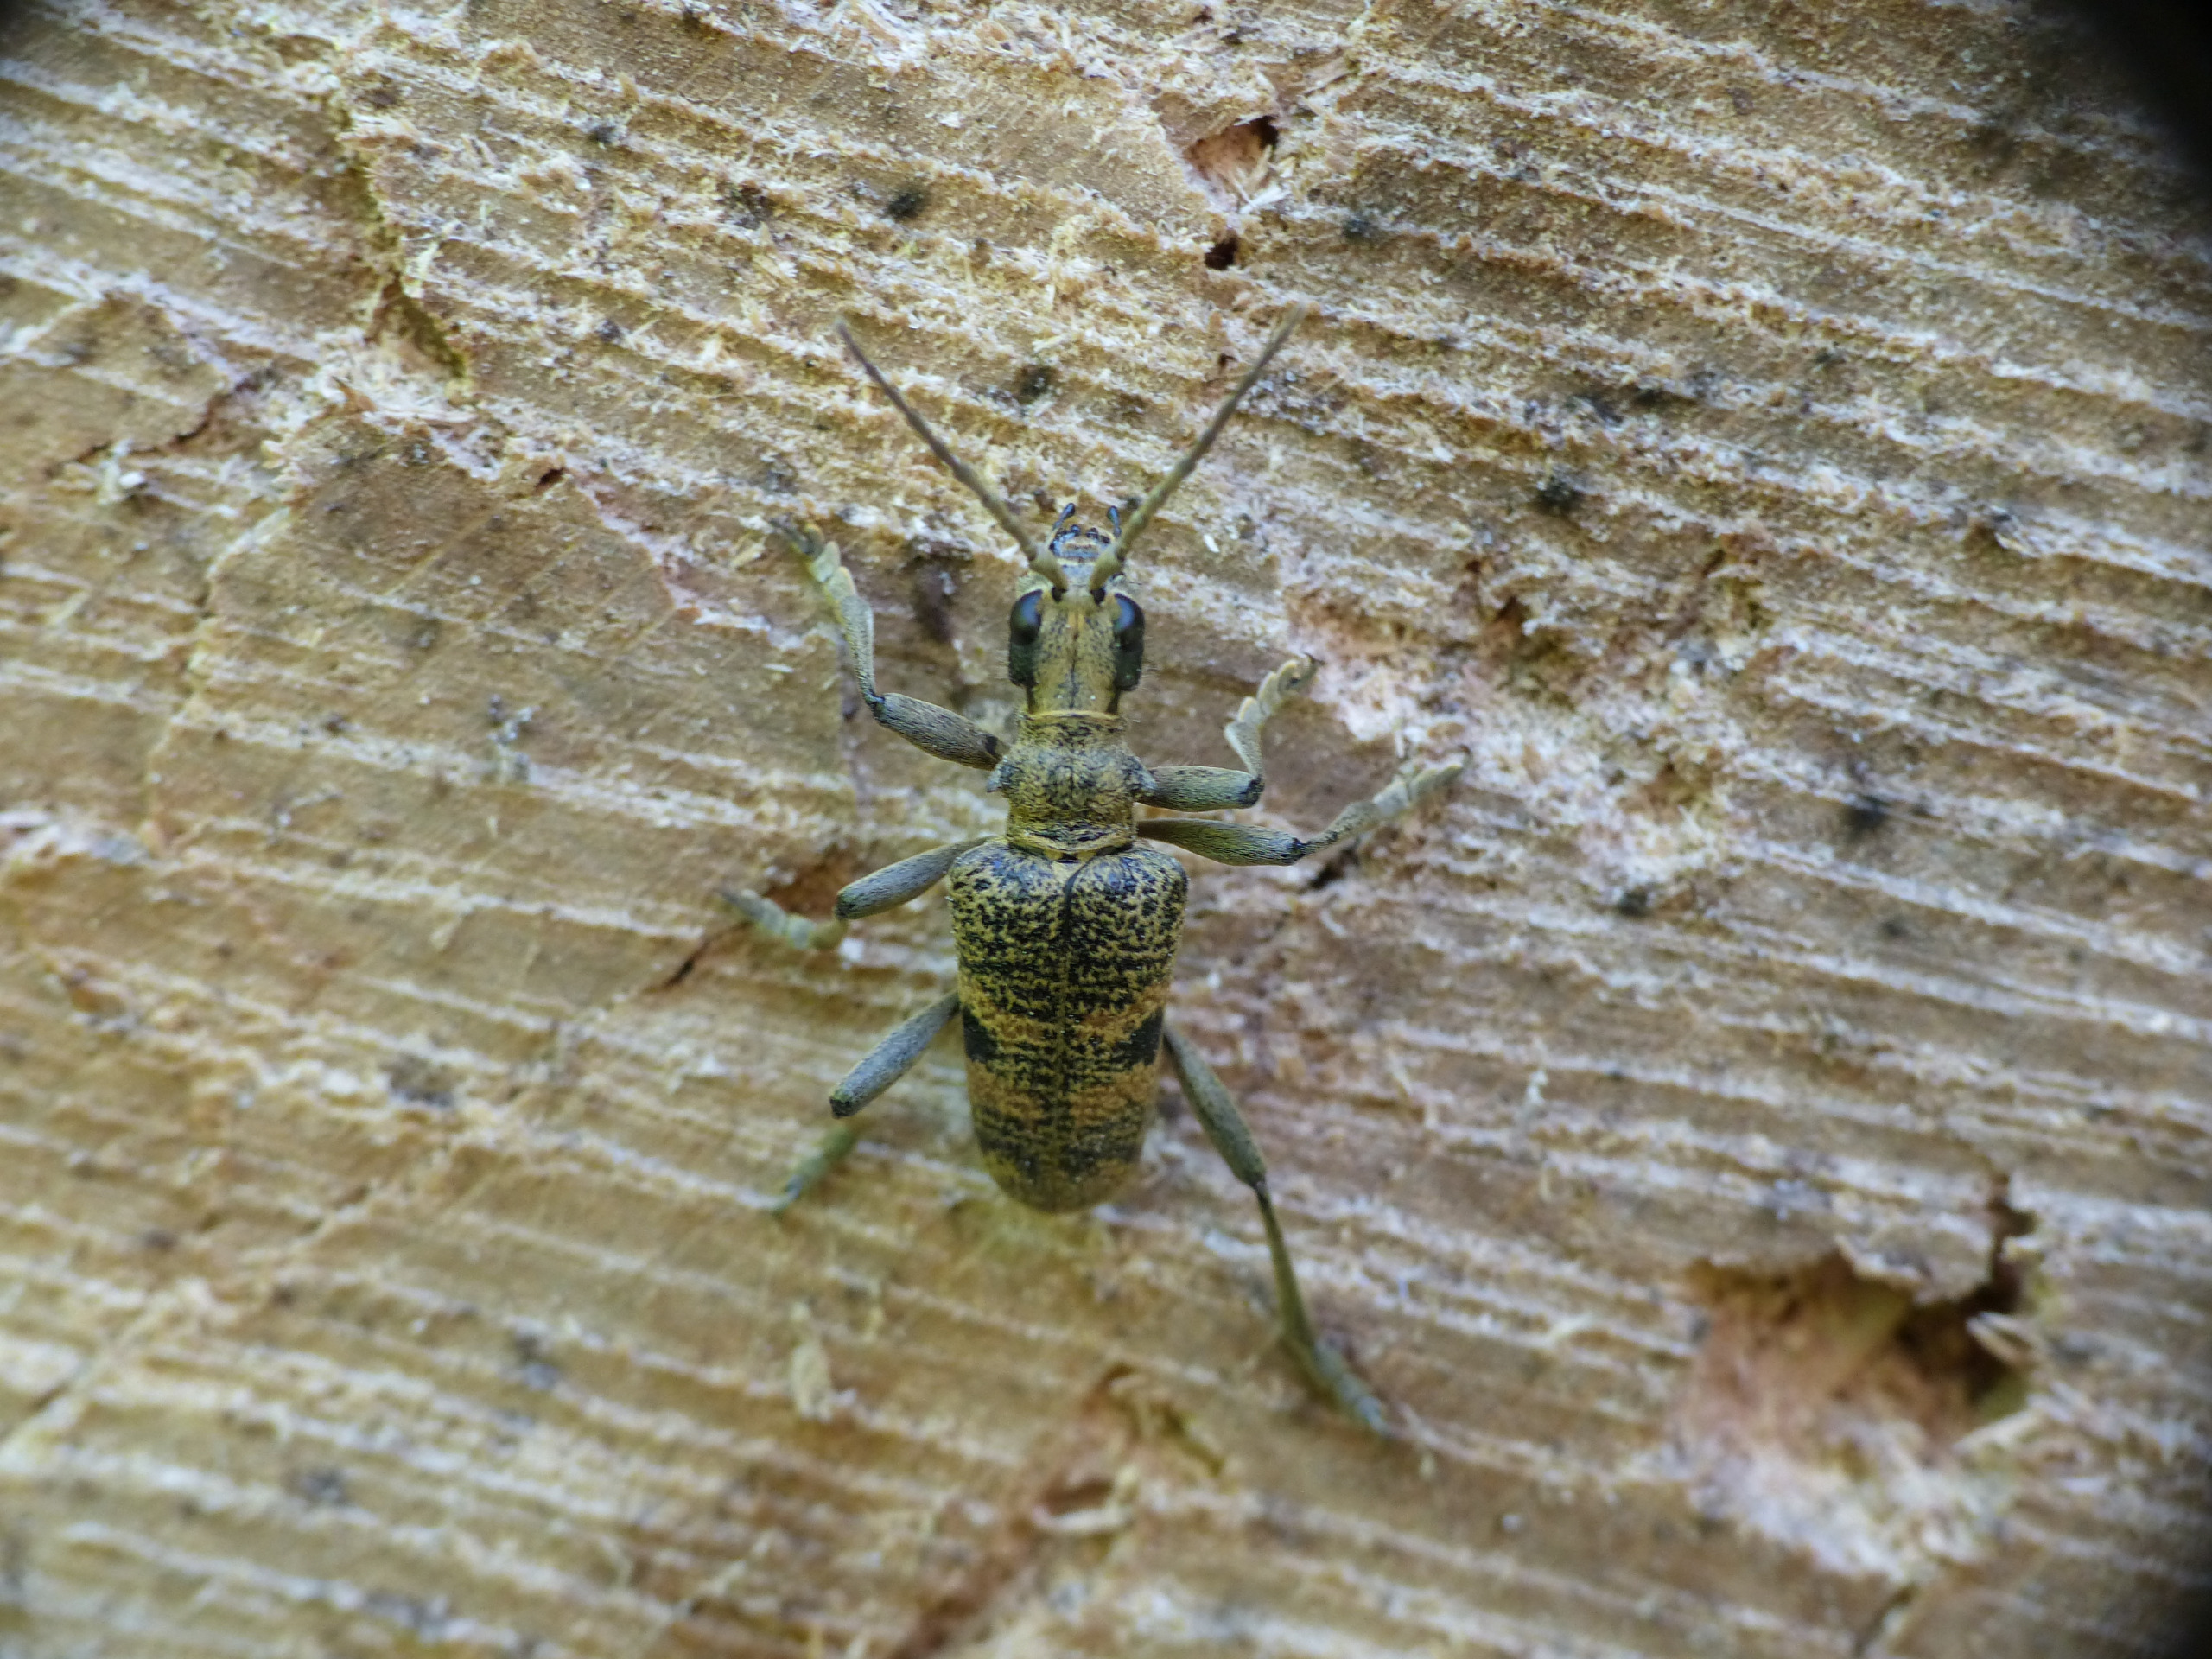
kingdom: Animalia
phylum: Arthropoda
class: Insecta
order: Coleoptera
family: Cerambycidae
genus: Rhagium
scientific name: Rhagium mordax
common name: Blankplettet tandbuk
